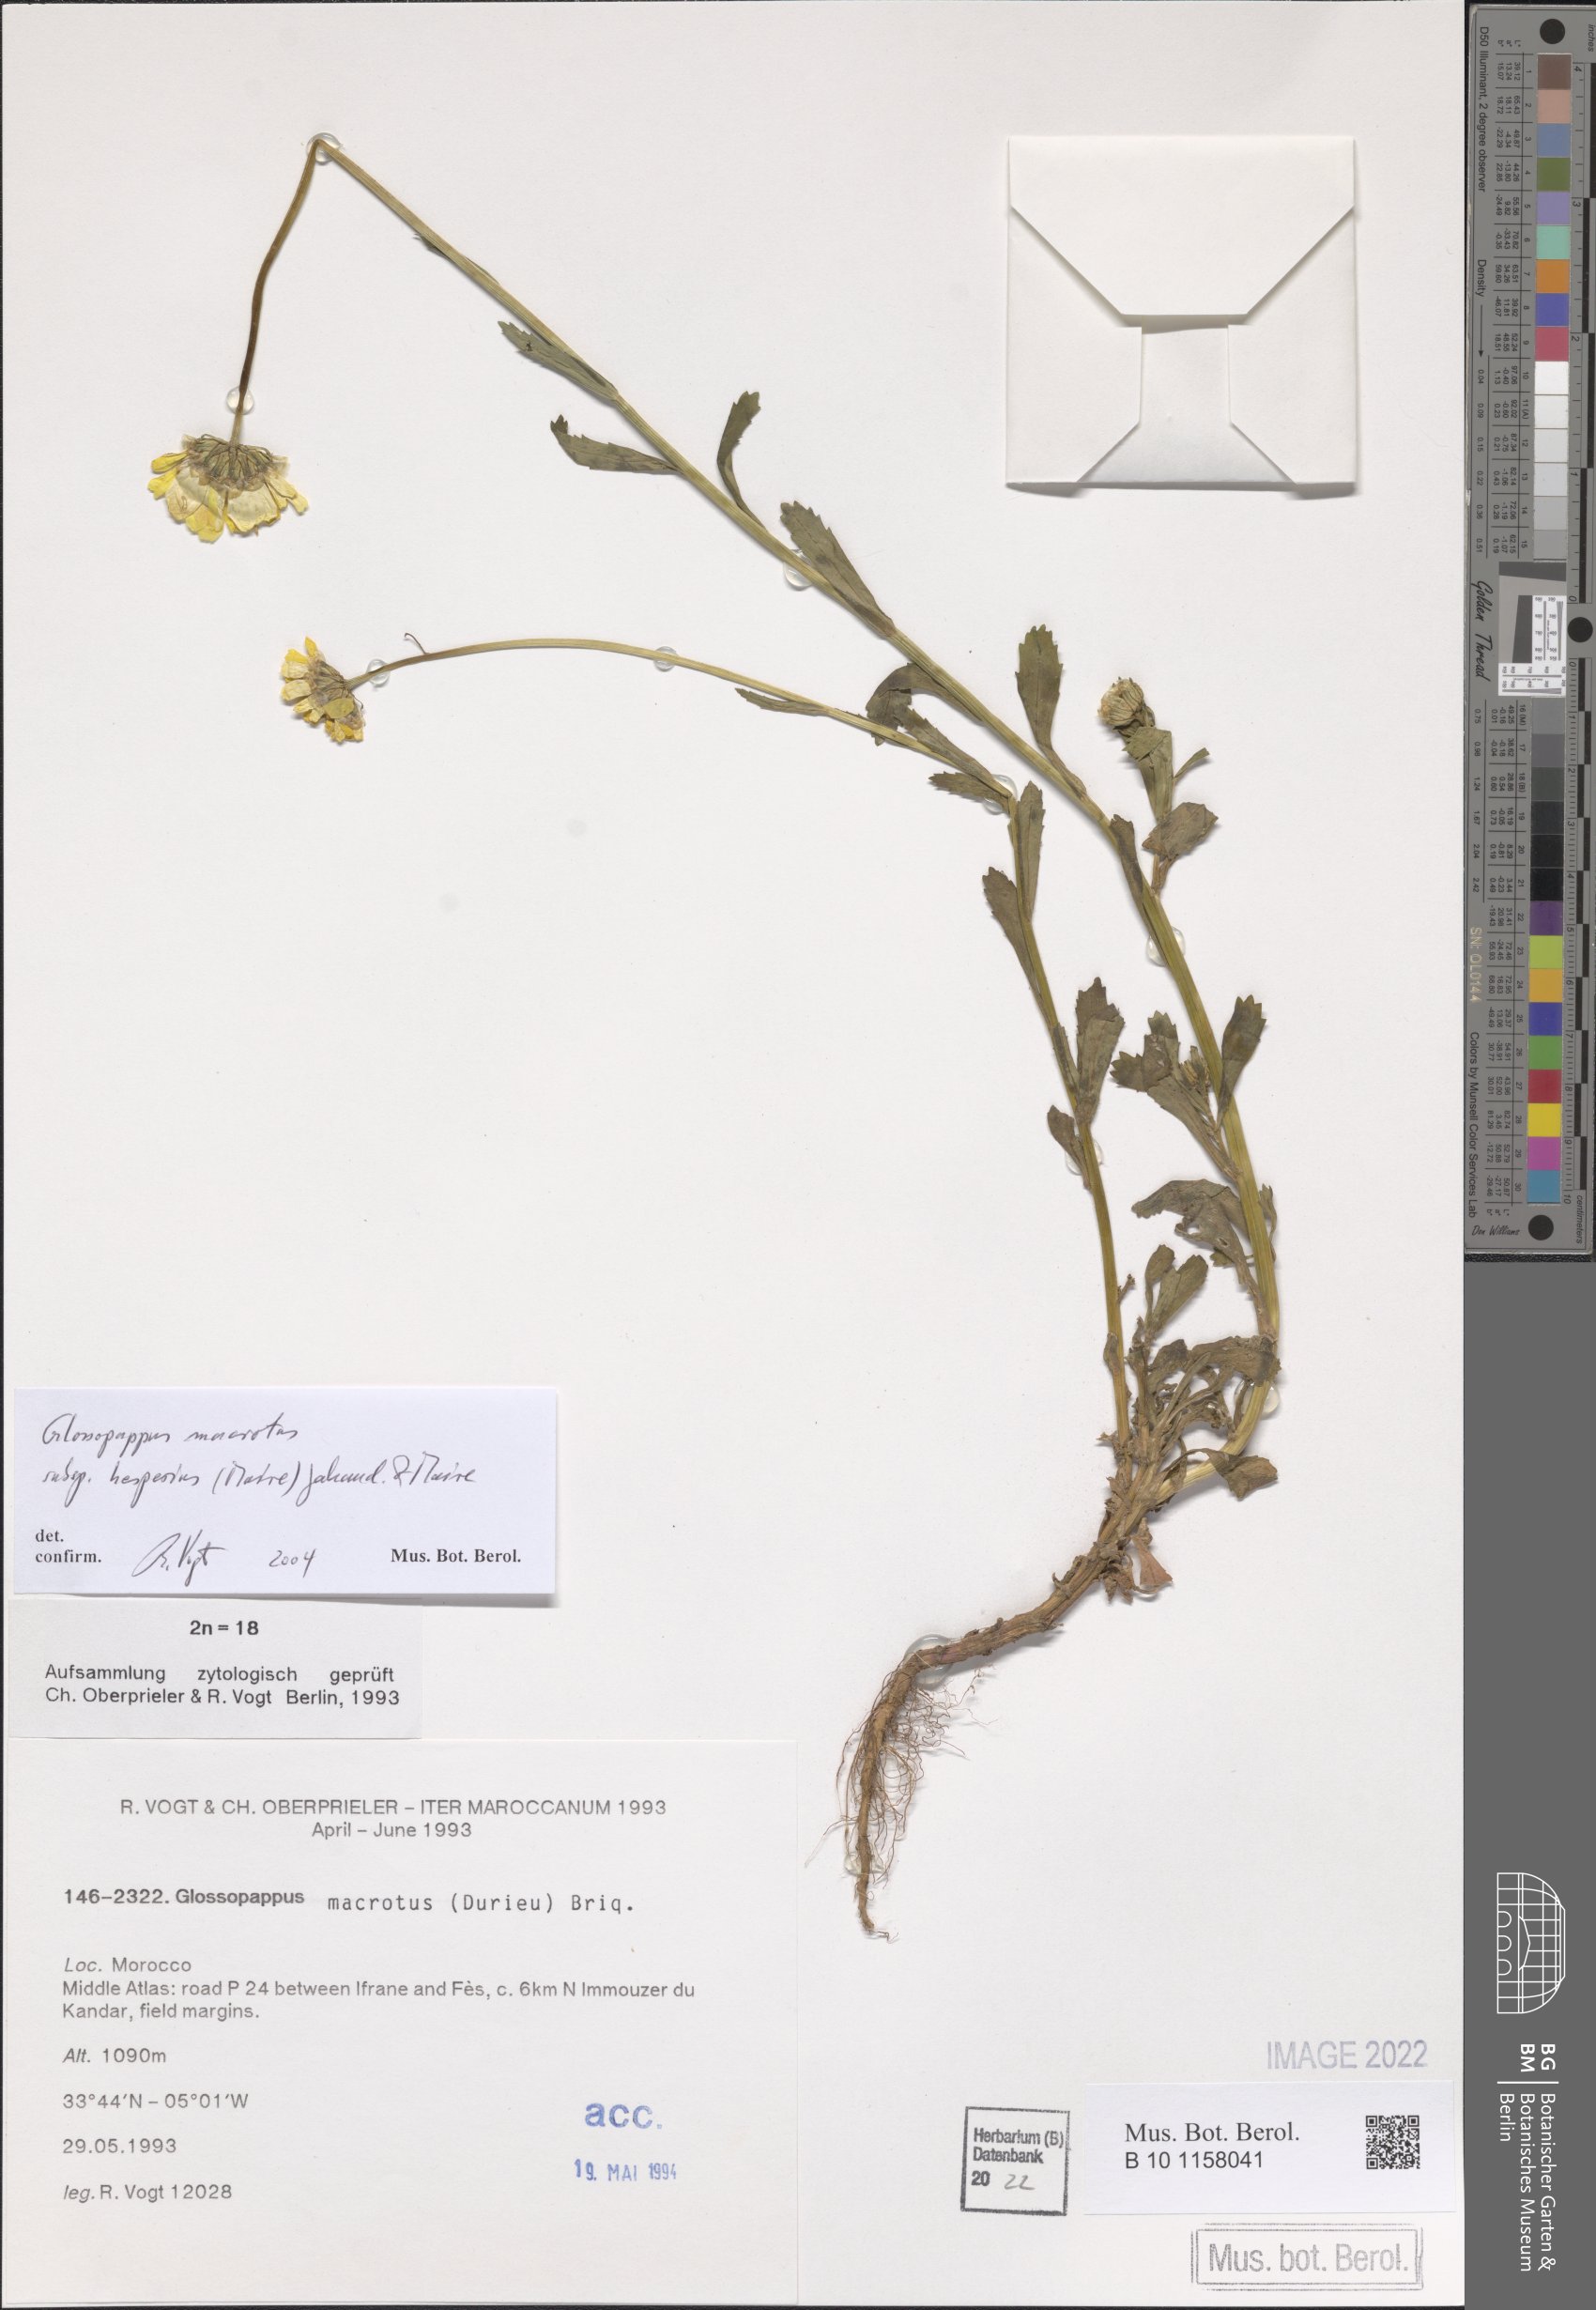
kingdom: Plantae
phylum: Tracheophyta
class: Magnoliopsida
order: Asterales
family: Asteraceae
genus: Glossopappus
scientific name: Glossopappus macrotus
